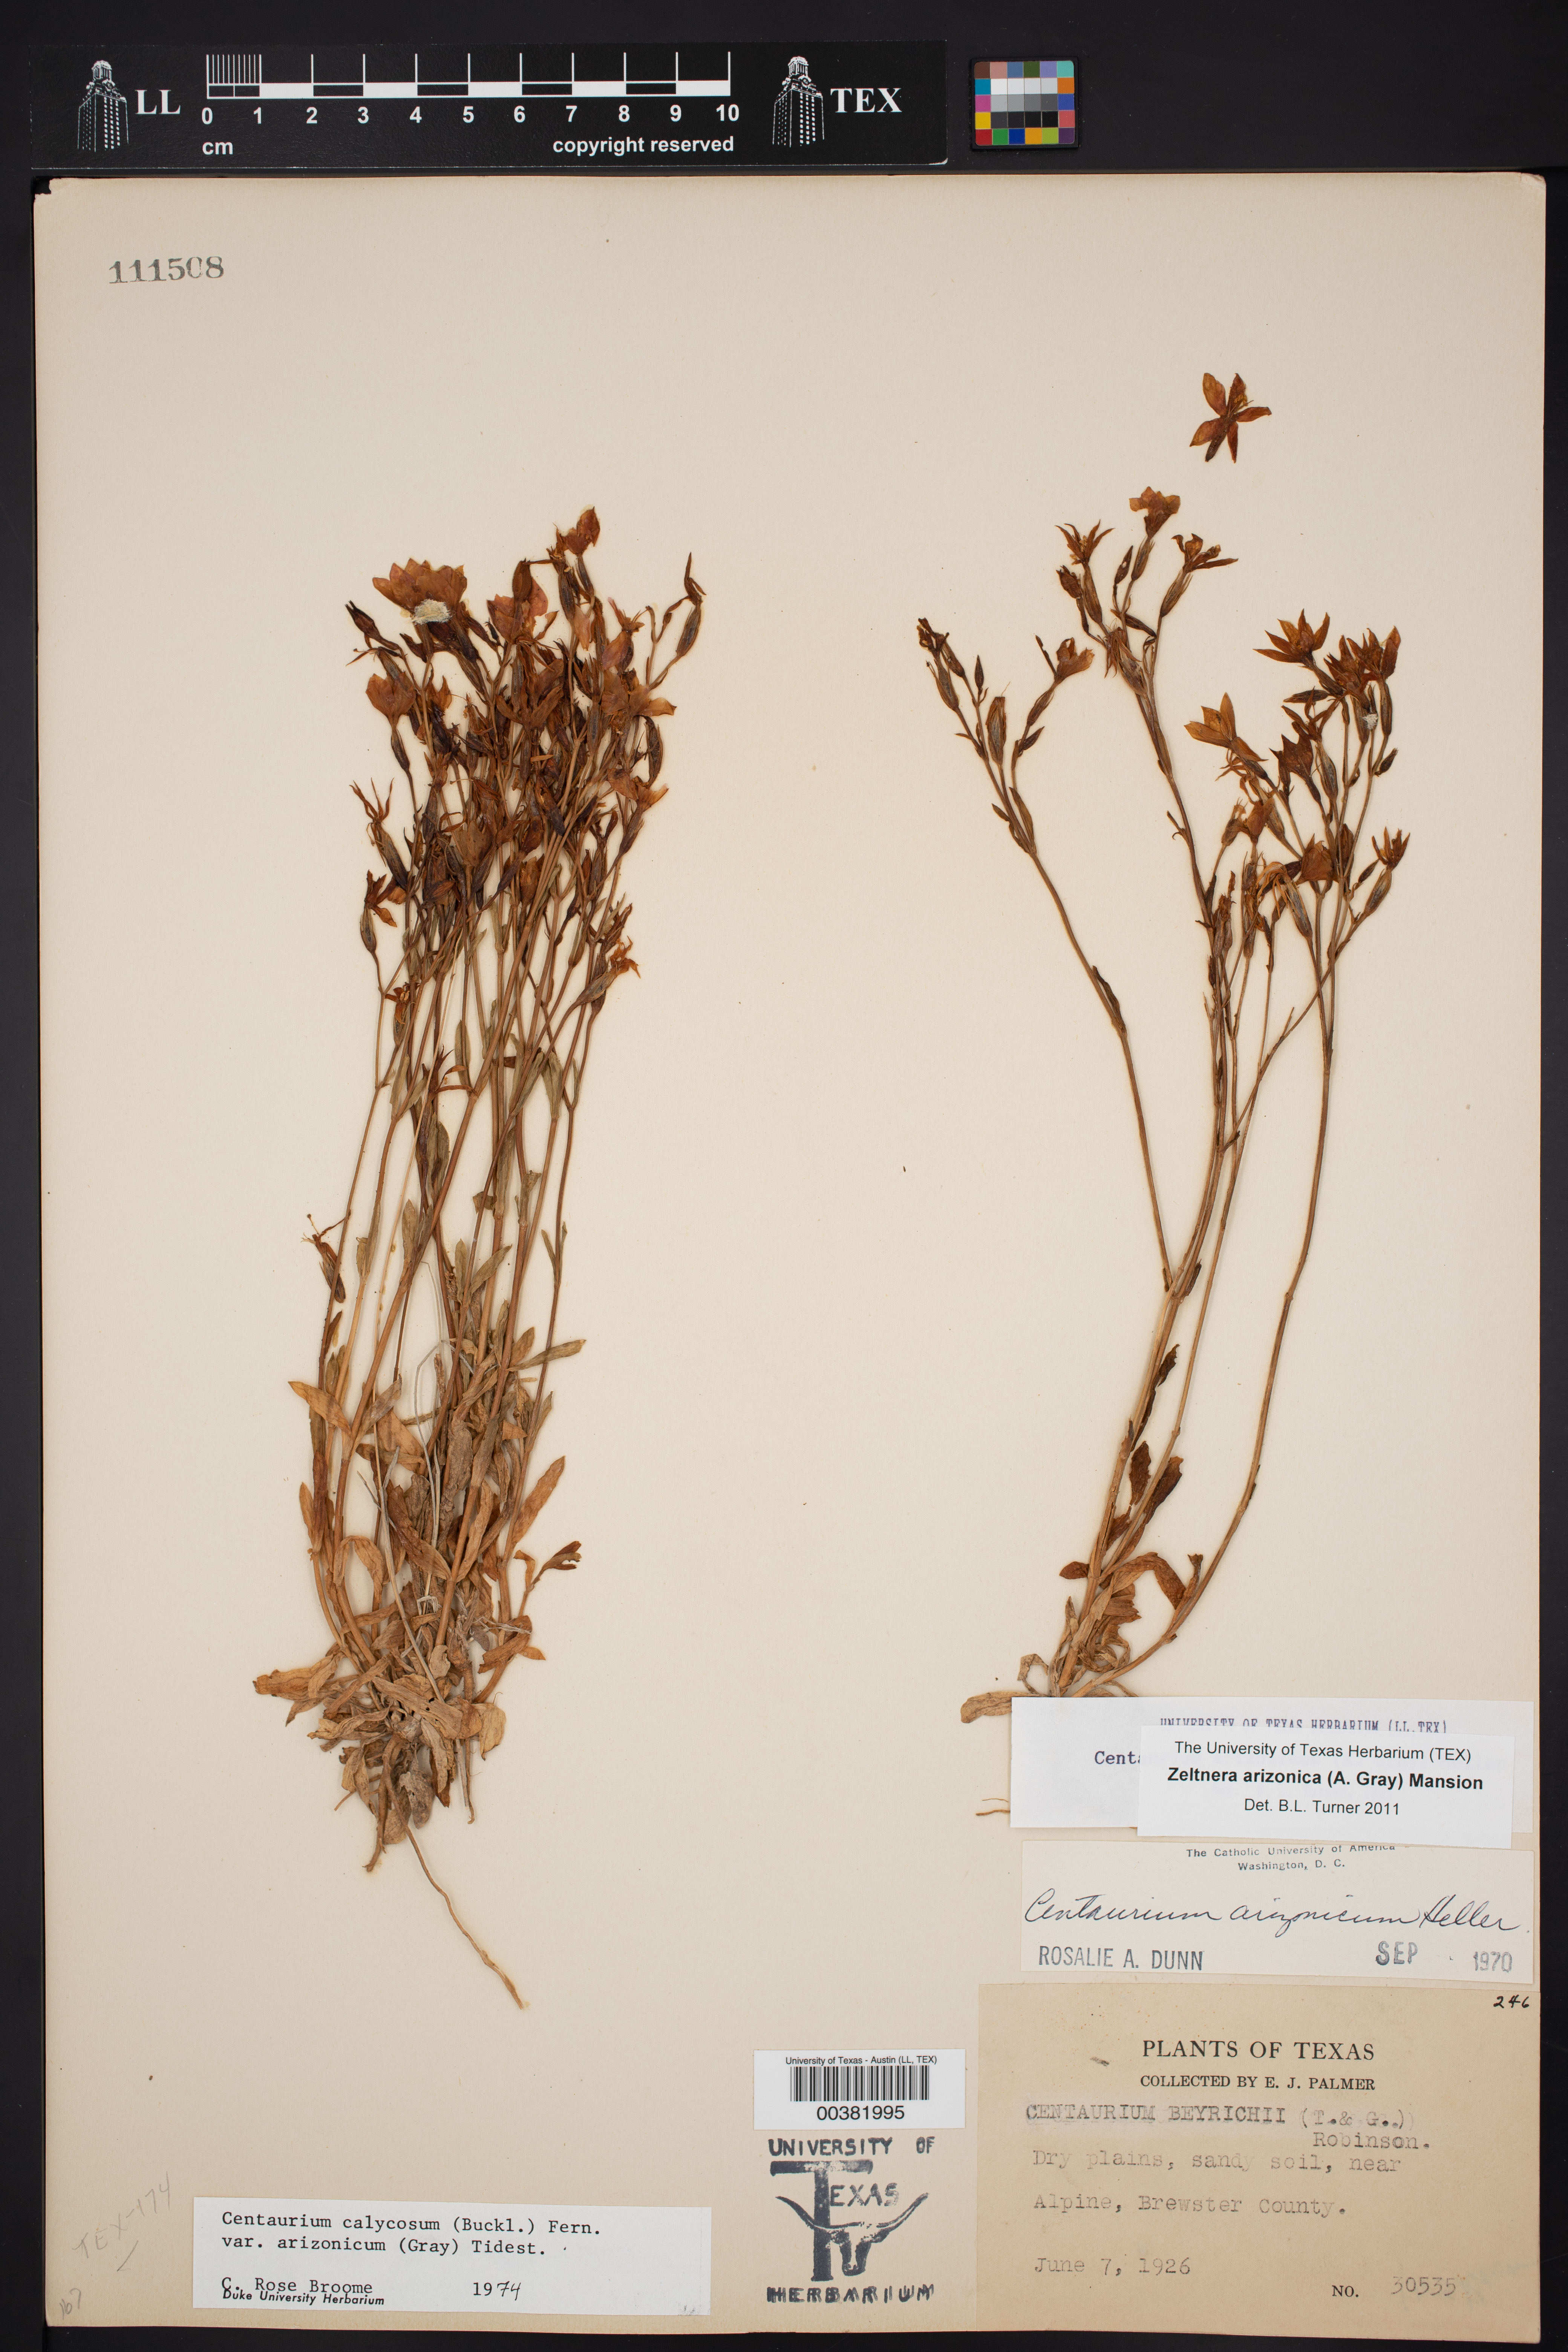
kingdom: Plantae
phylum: Tracheophyta
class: Magnoliopsida
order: Gentianales
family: Gentianaceae
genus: Zeltnera
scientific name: Zeltnera arizonica
